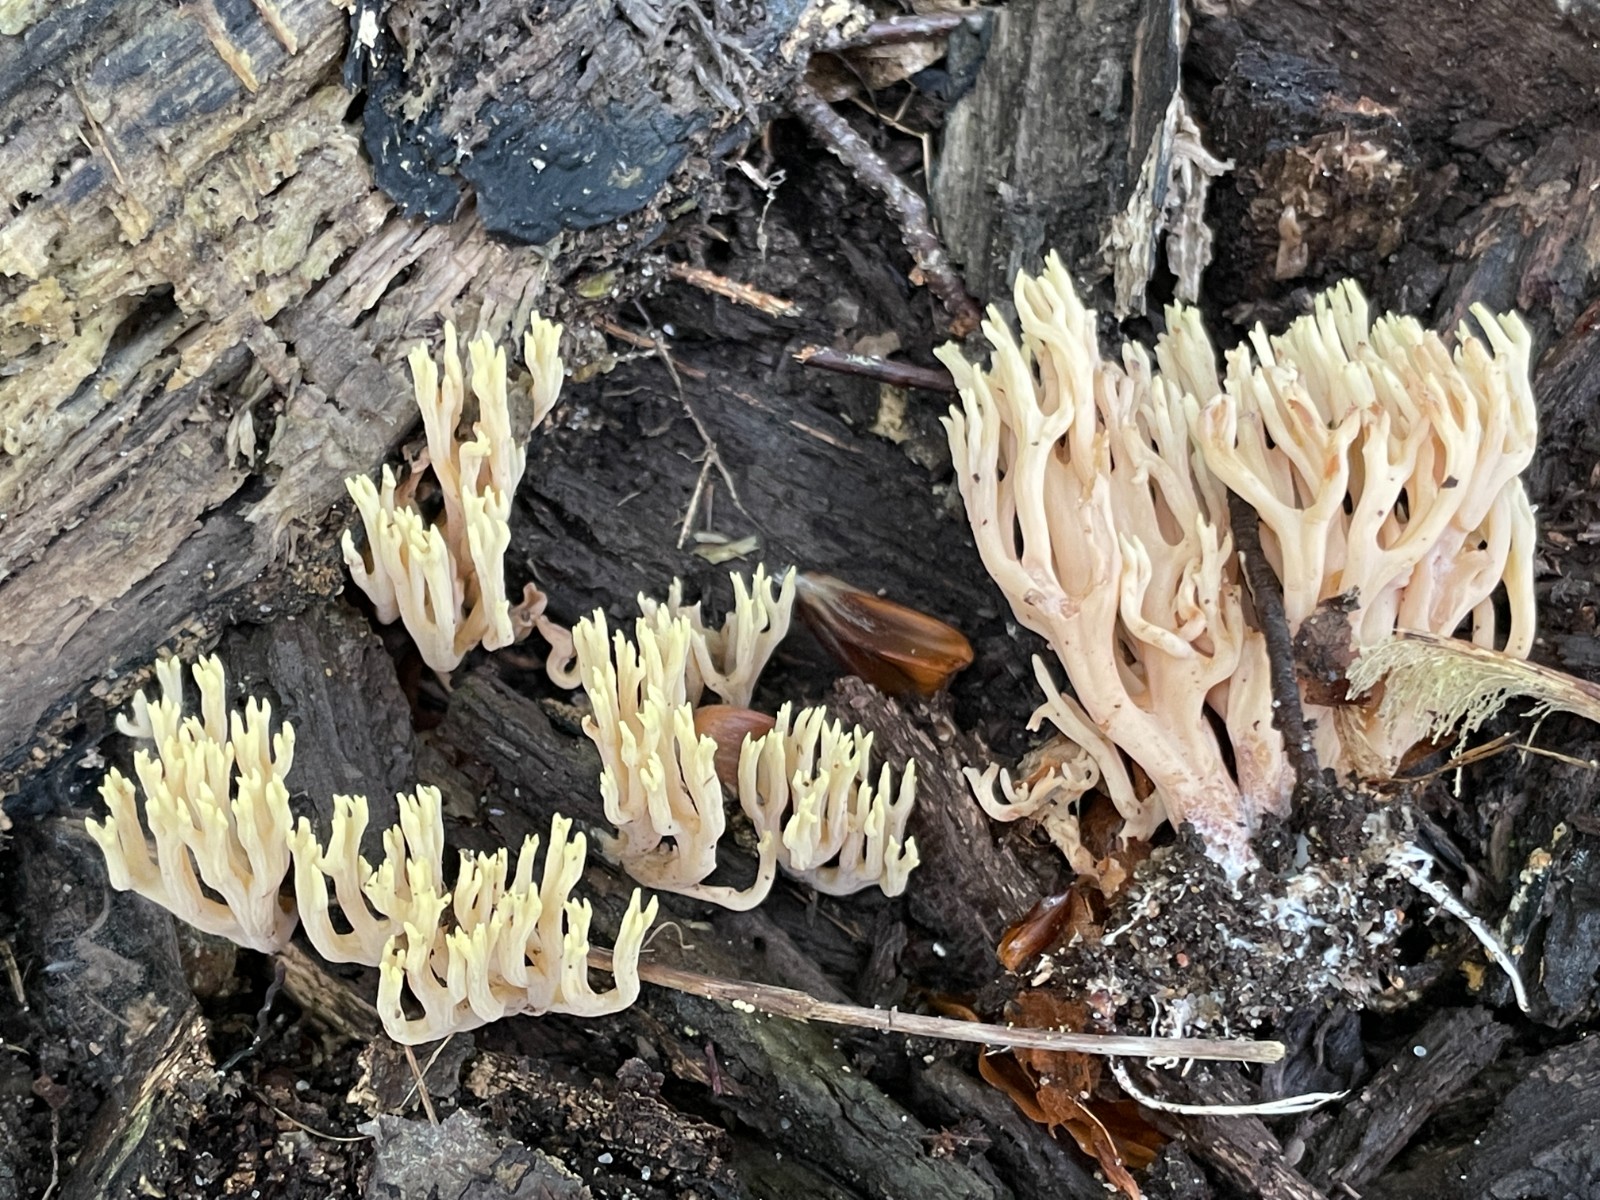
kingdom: Fungi
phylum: Basidiomycota
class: Agaricomycetes
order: Gomphales
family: Gomphaceae
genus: Ramaria
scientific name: Ramaria stricta
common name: rank koralsvamp
